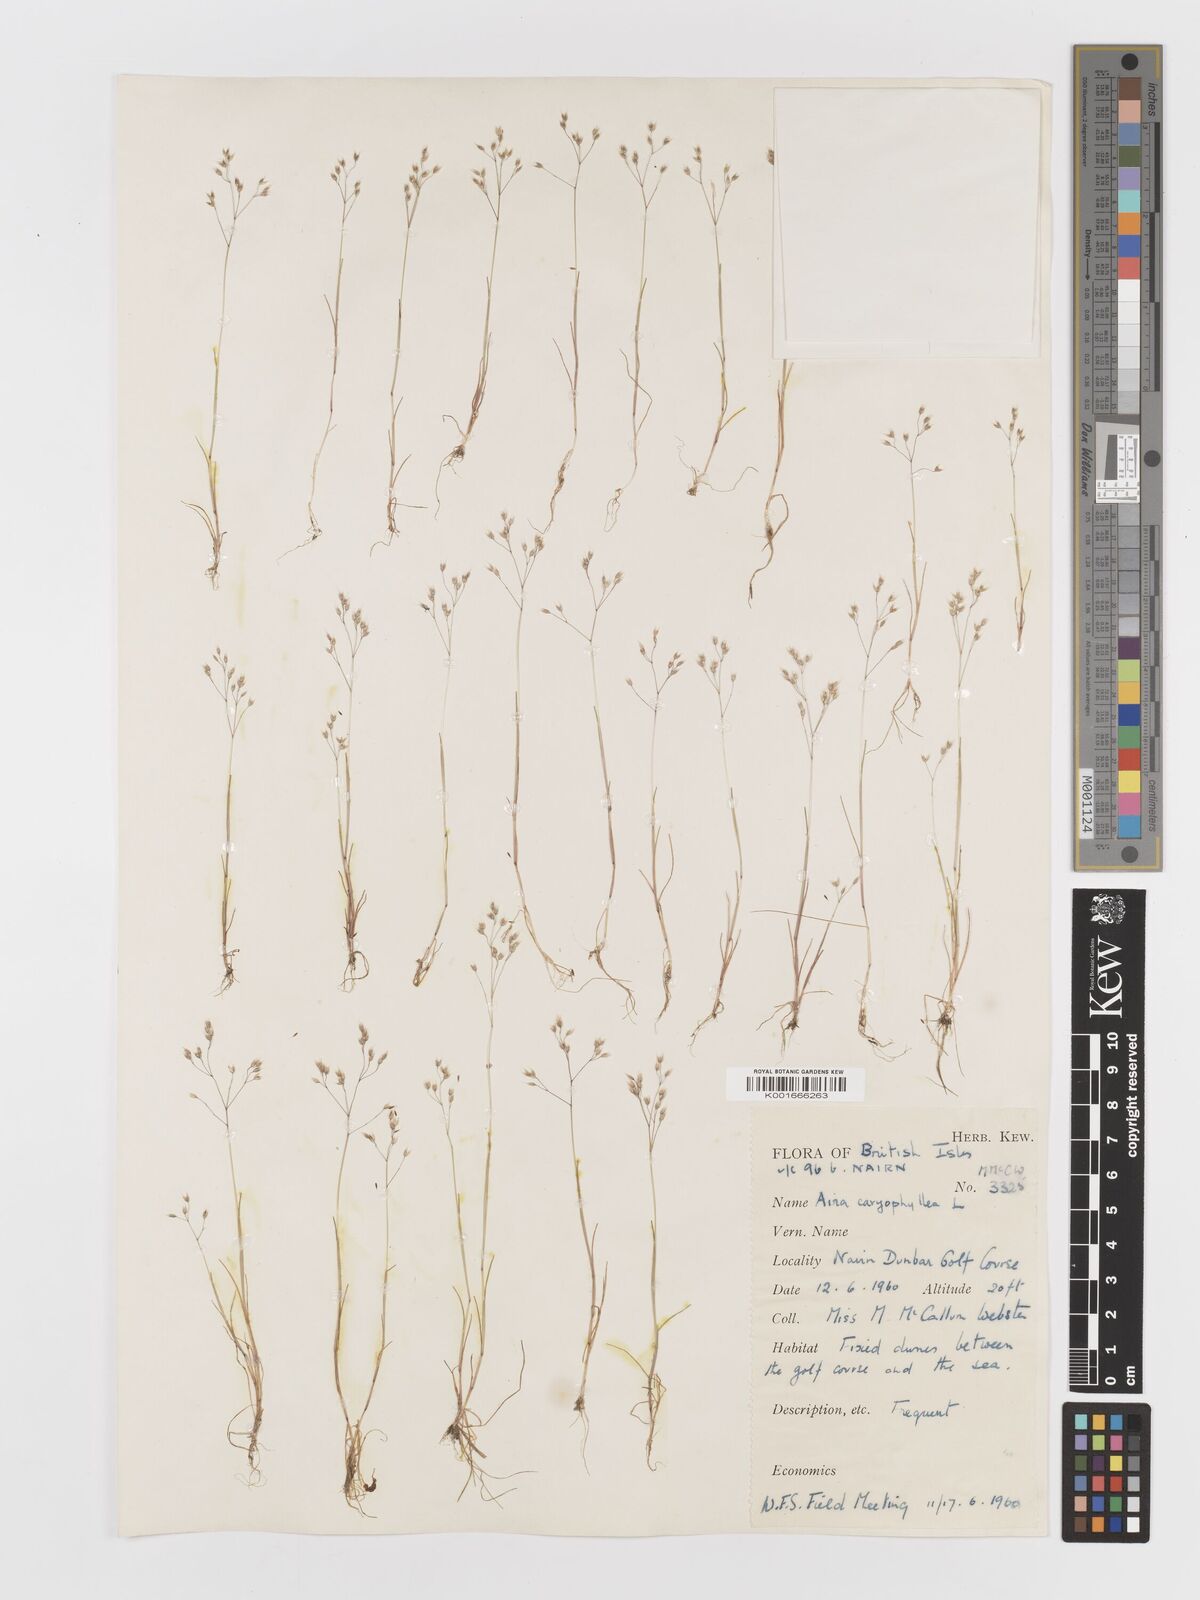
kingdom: Plantae
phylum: Tracheophyta
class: Liliopsida
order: Poales
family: Poaceae
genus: Aira
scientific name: Aira caryophyllea
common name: Silver hairgrass
